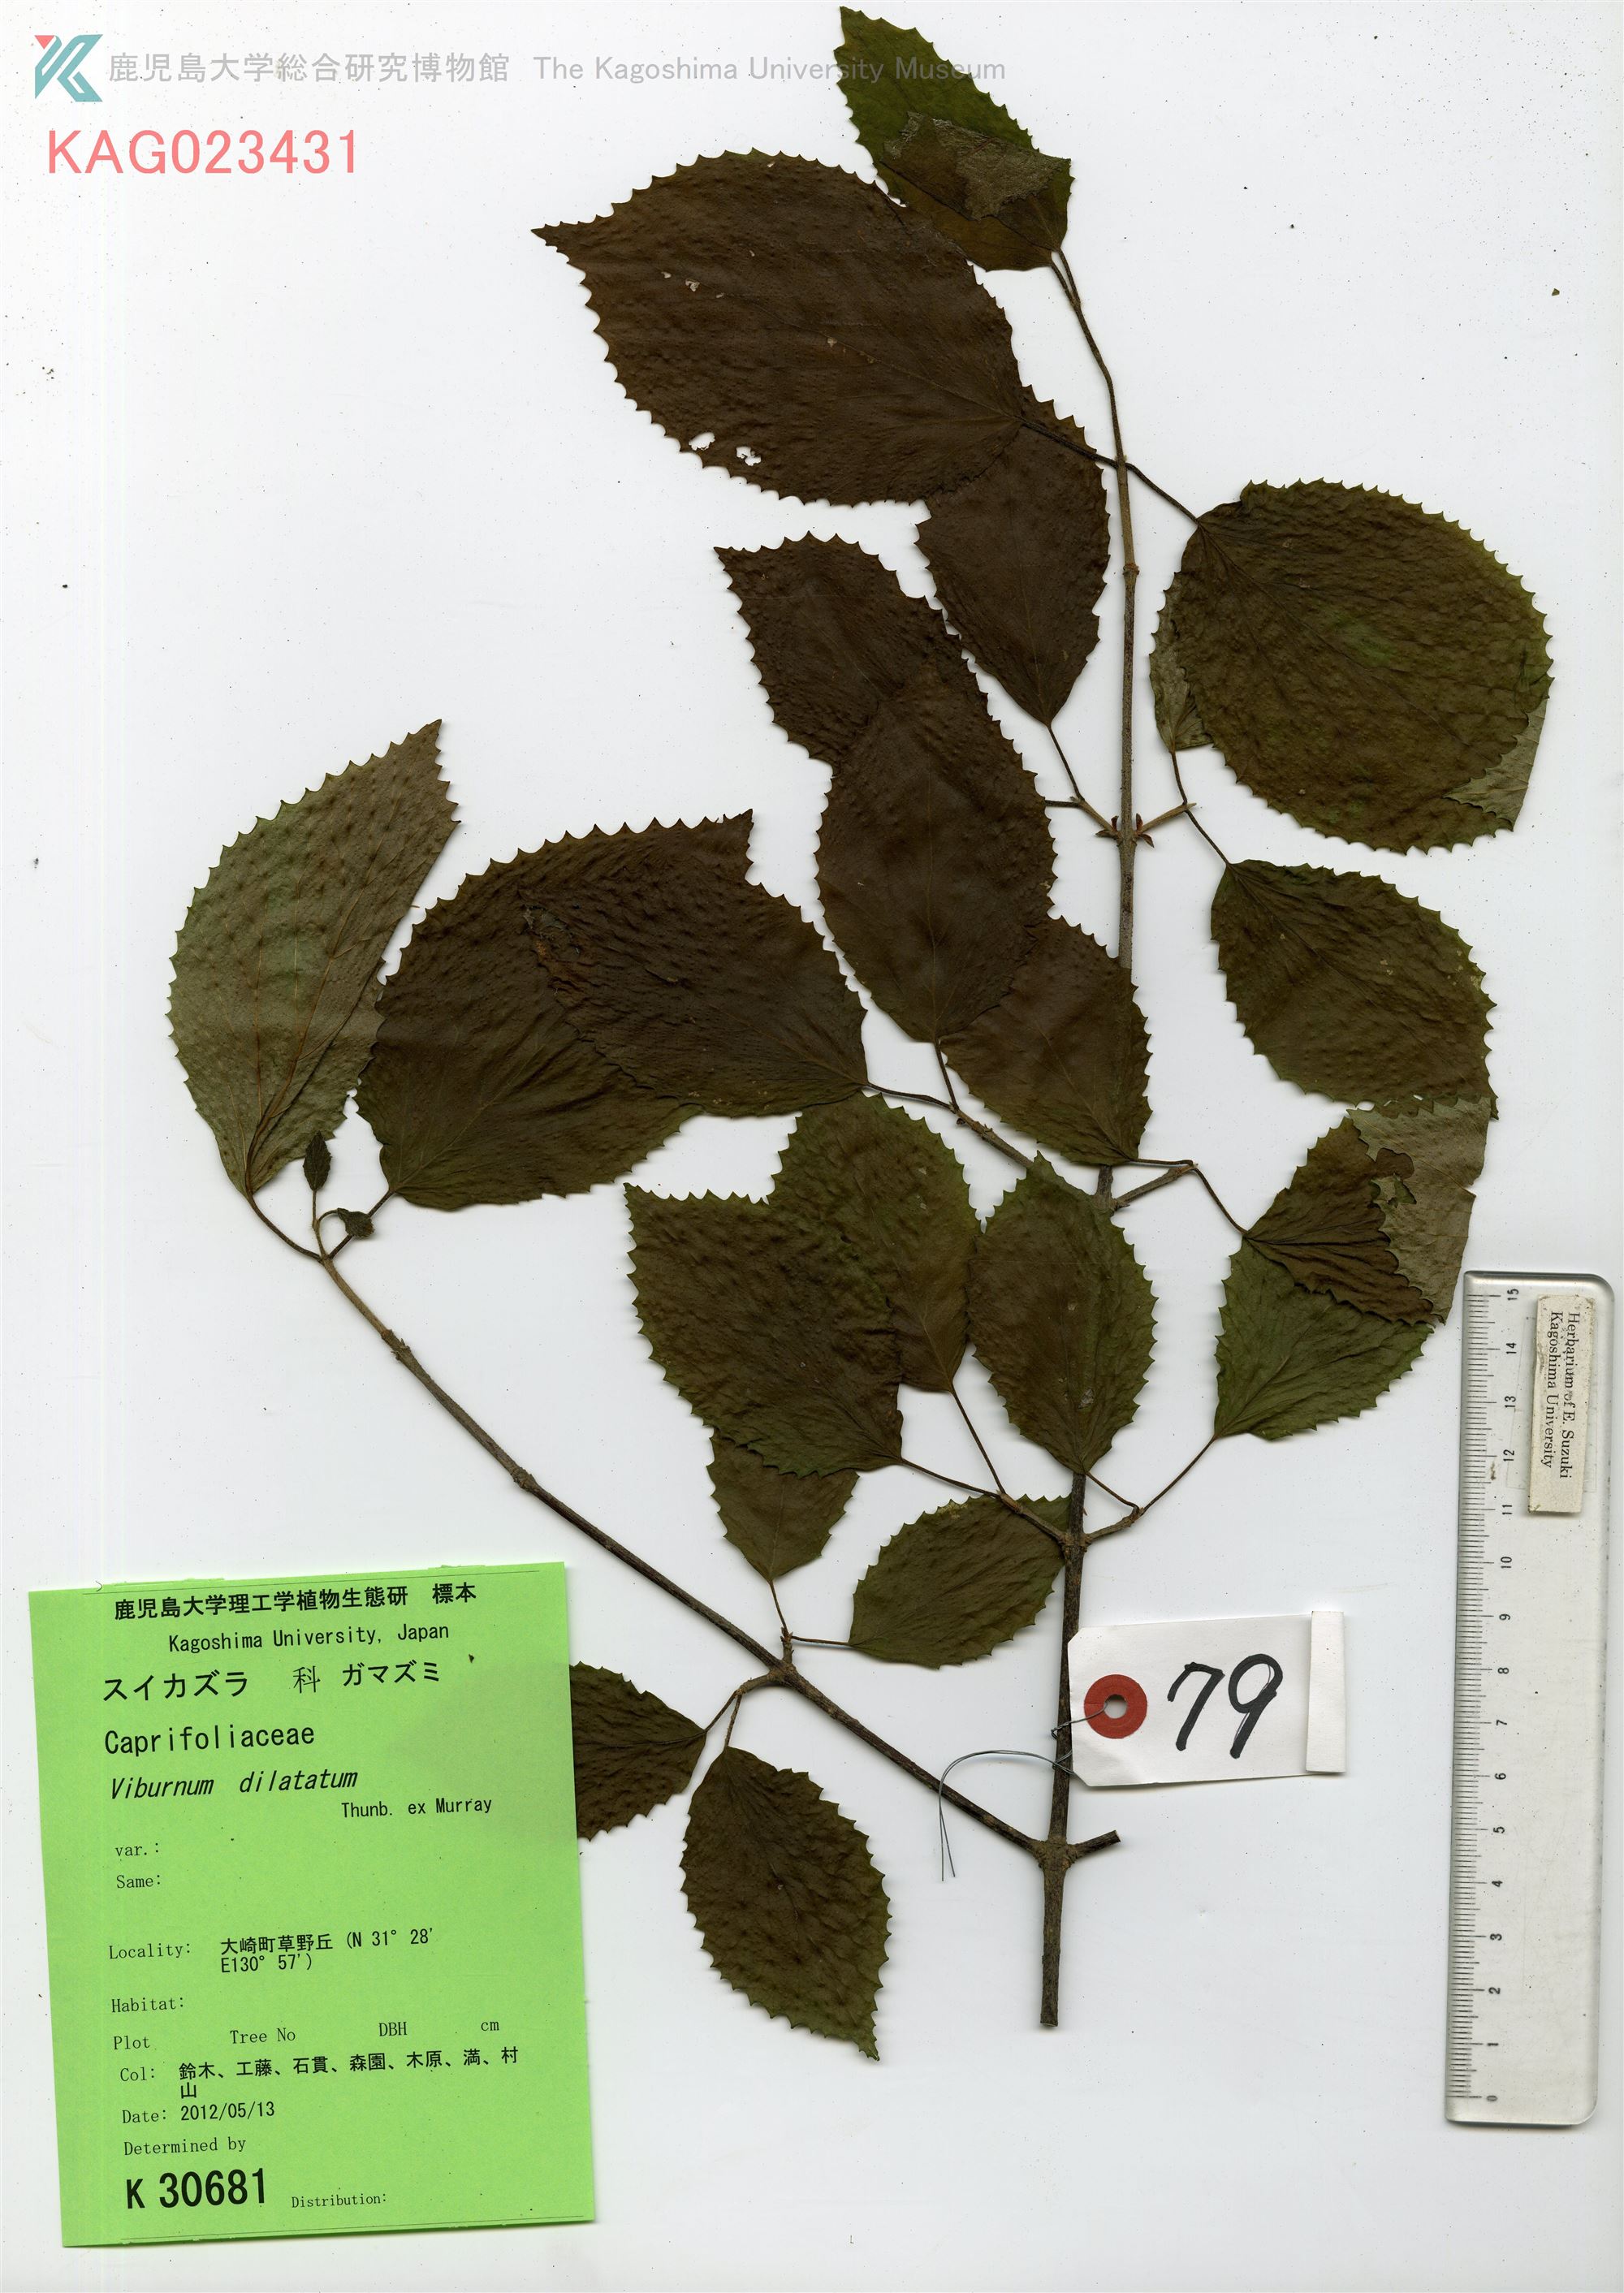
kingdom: Plantae
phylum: Tracheophyta
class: Magnoliopsida
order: Dipsacales
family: Viburnaceae
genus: Viburnum
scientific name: Viburnum dilatatum
